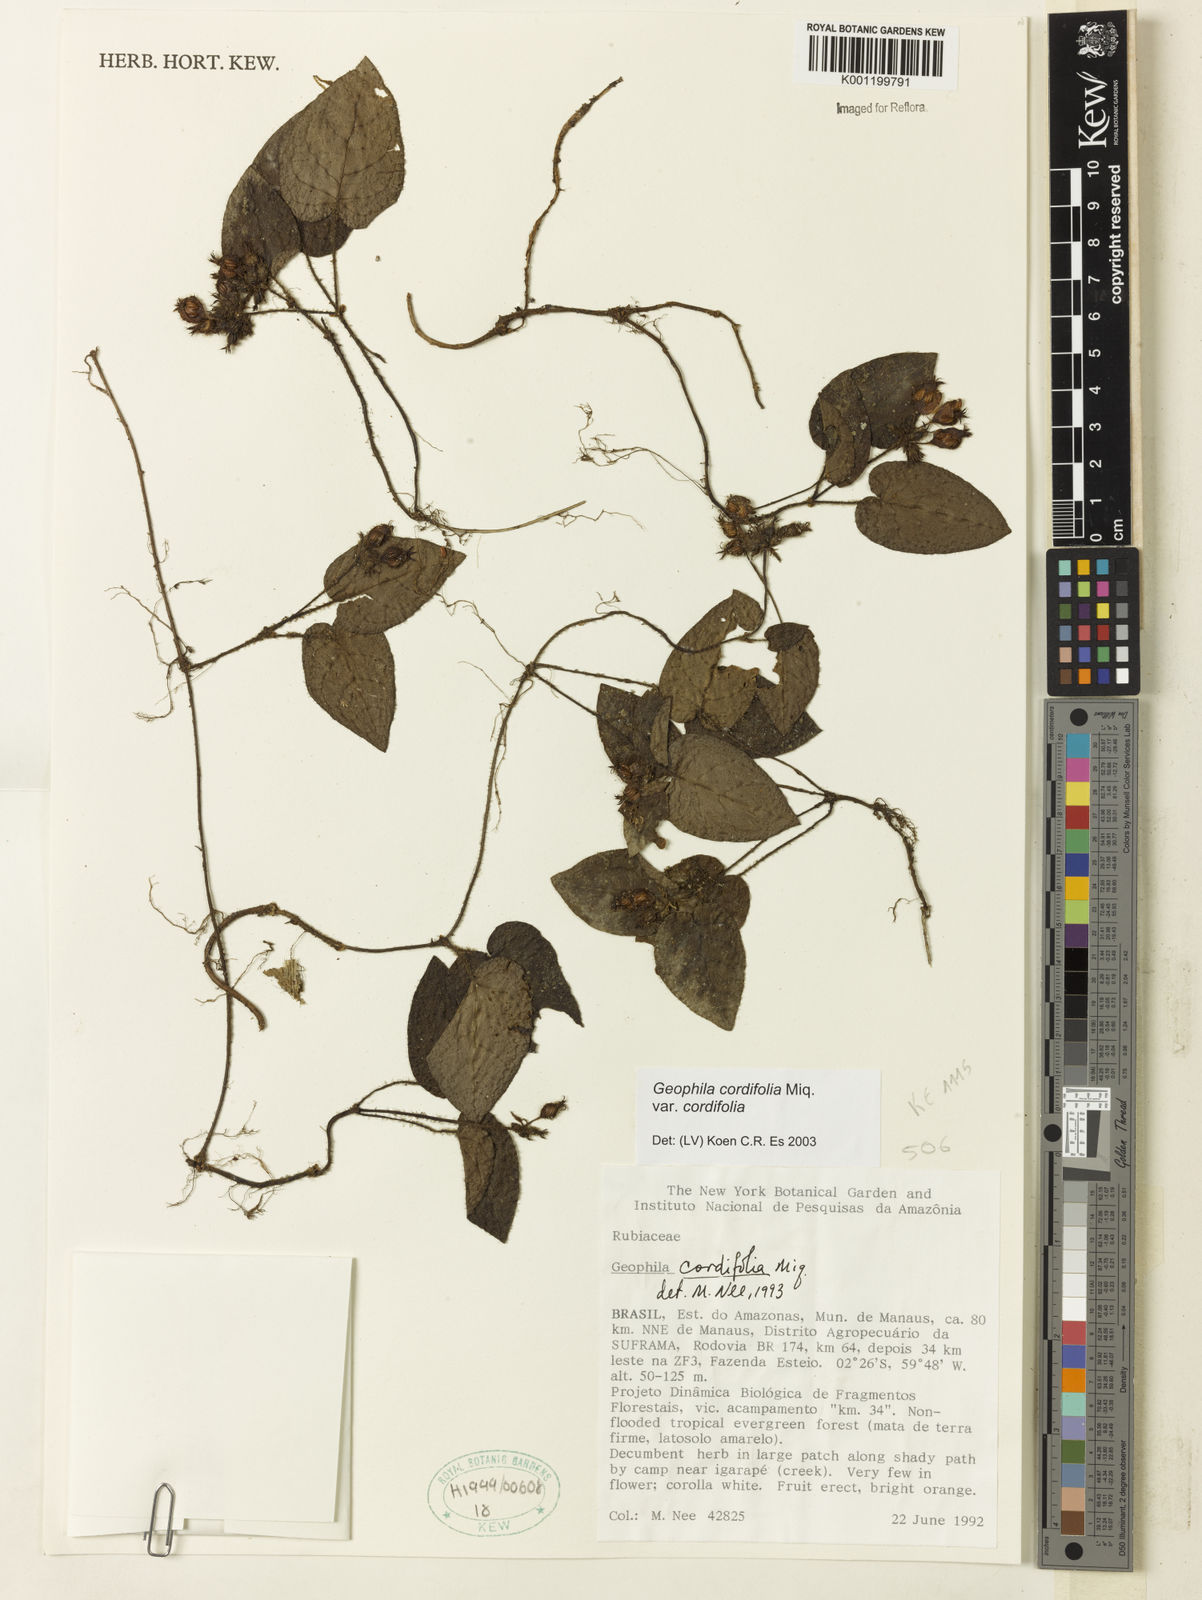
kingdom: Plantae
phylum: Tracheophyta
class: Magnoliopsida
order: Gentianales
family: Rubiaceae
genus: Geophila
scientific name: Geophila cordifolia
